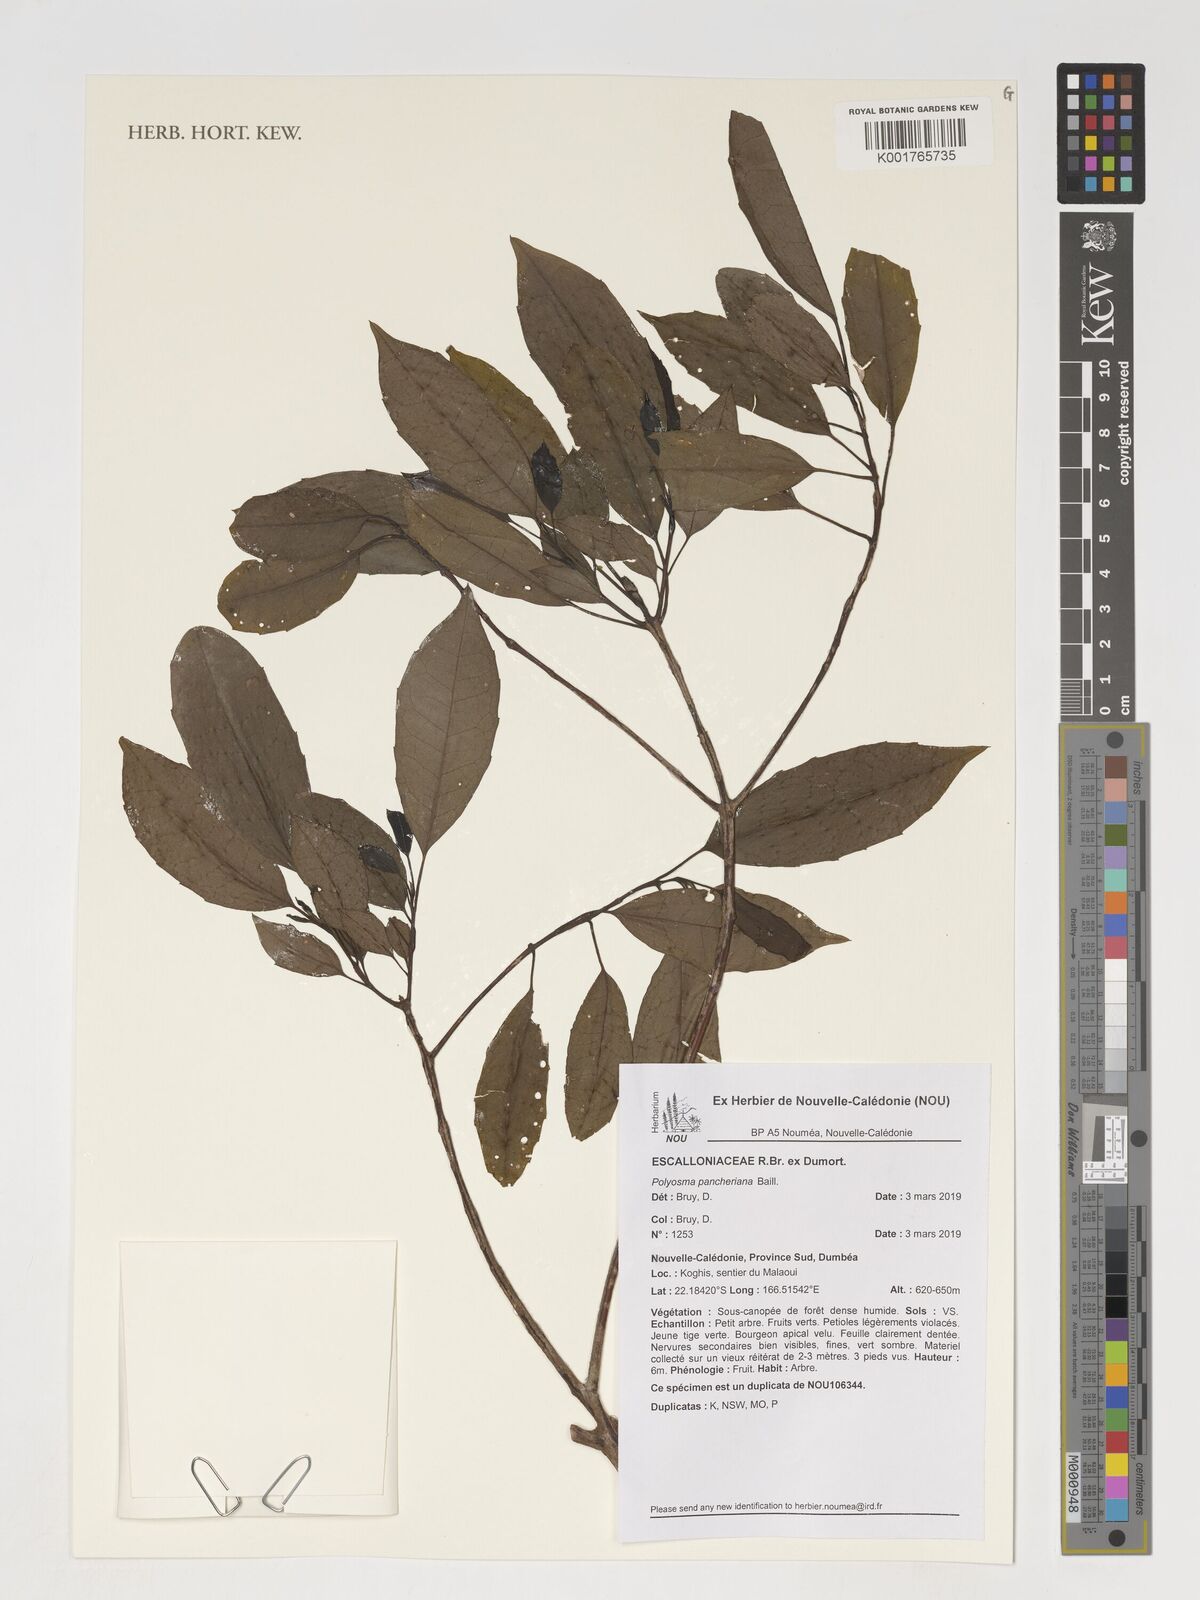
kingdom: Plantae
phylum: Tracheophyta
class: Magnoliopsida
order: Escalloniales
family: Escalloniaceae
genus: Polyosma
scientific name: Polyosma pancheriana
